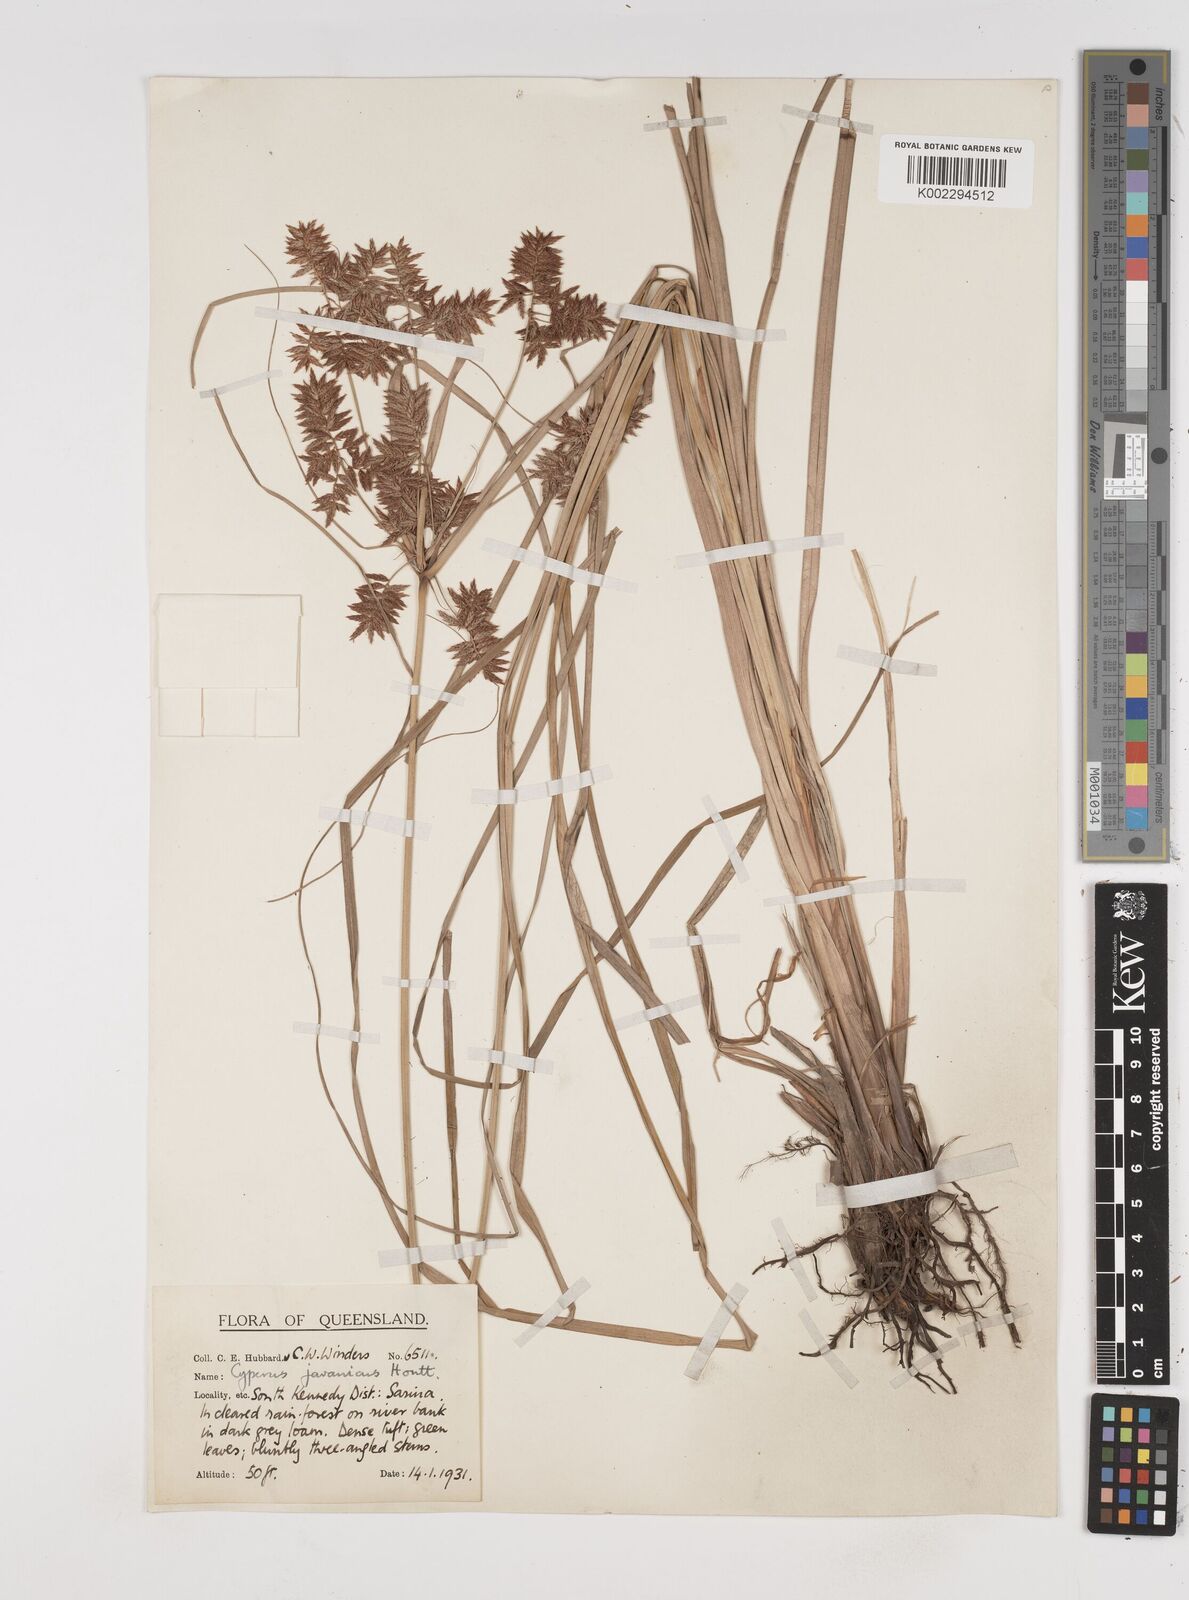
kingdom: Plantae
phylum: Tracheophyta
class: Liliopsida
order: Poales
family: Cyperaceae
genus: Cyperus
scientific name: Cyperus javanicus
